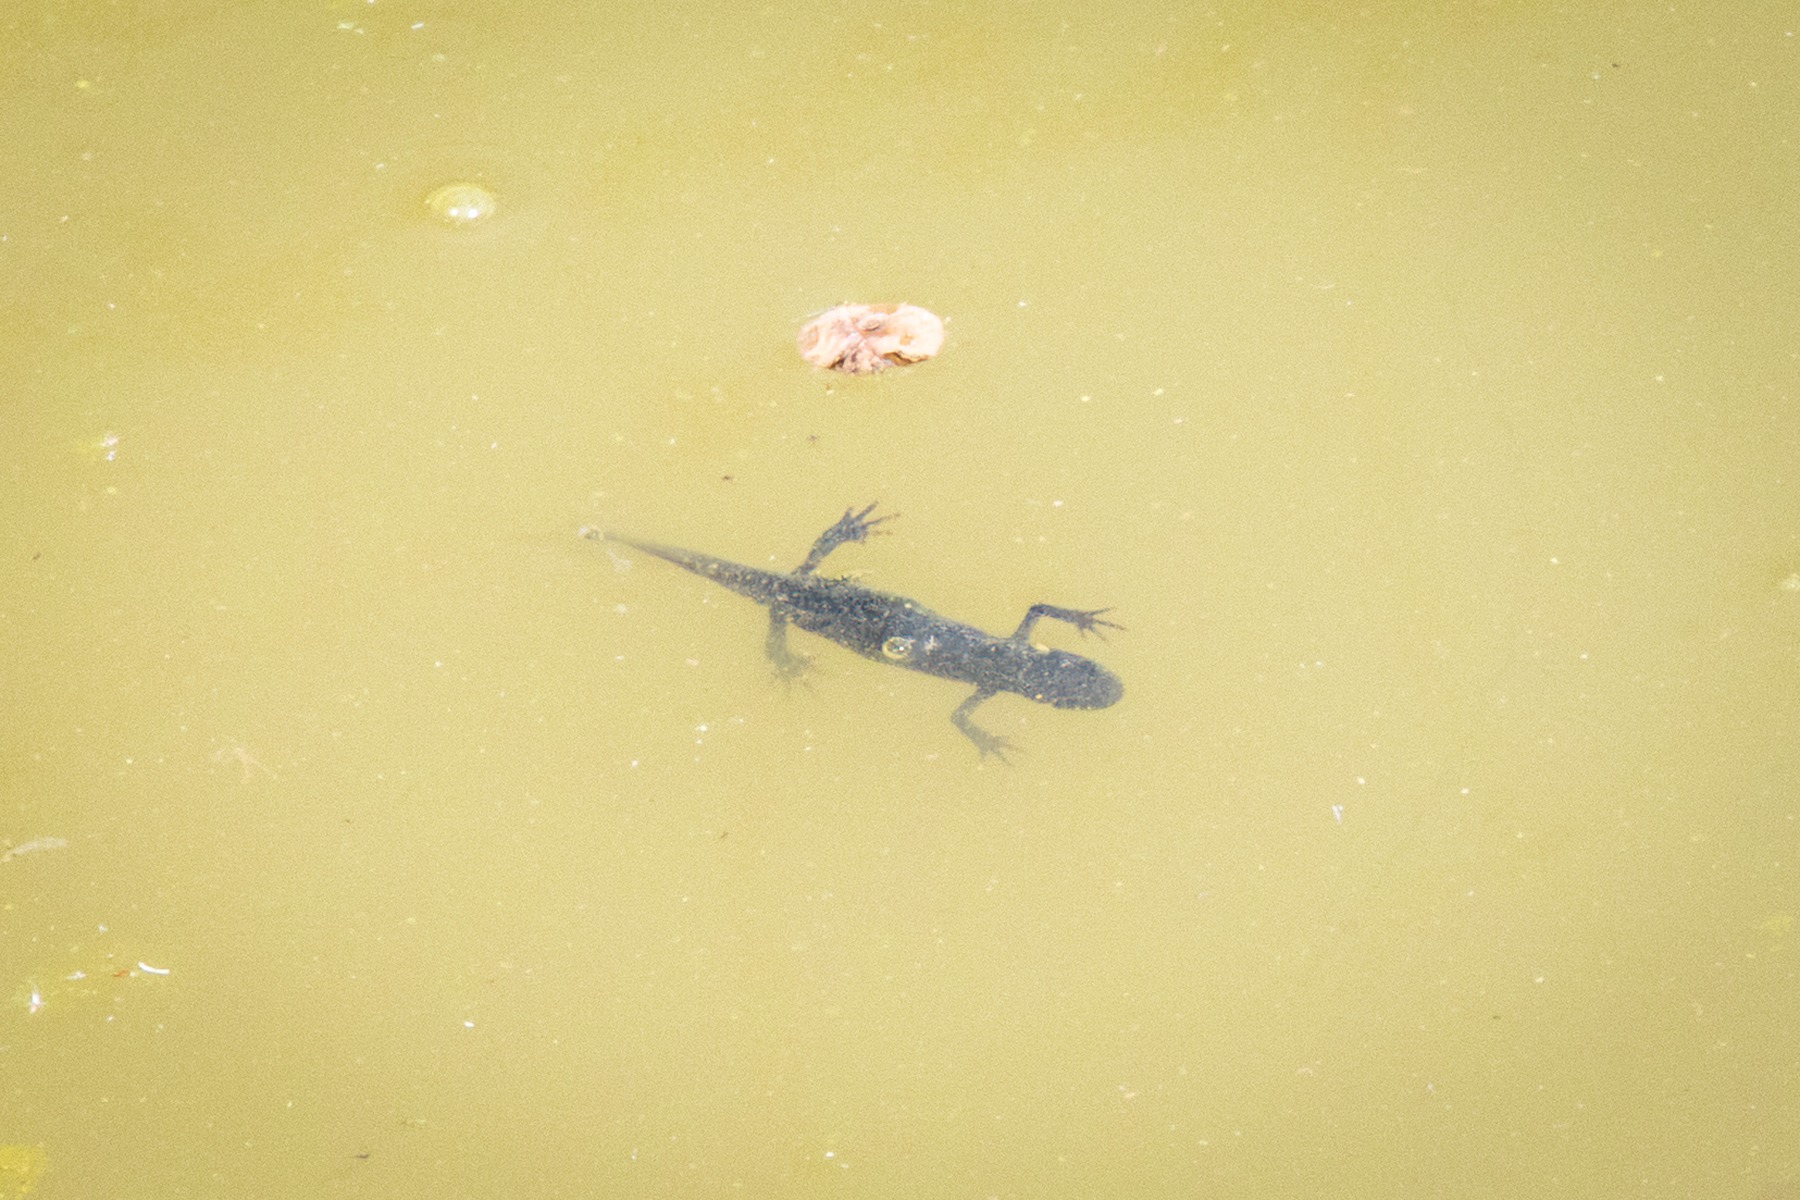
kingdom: Animalia
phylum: Chordata
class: Amphibia
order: Caudata
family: Salamandridae
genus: Triturus
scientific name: Triturus cristatus
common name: Stor vandsalamander
